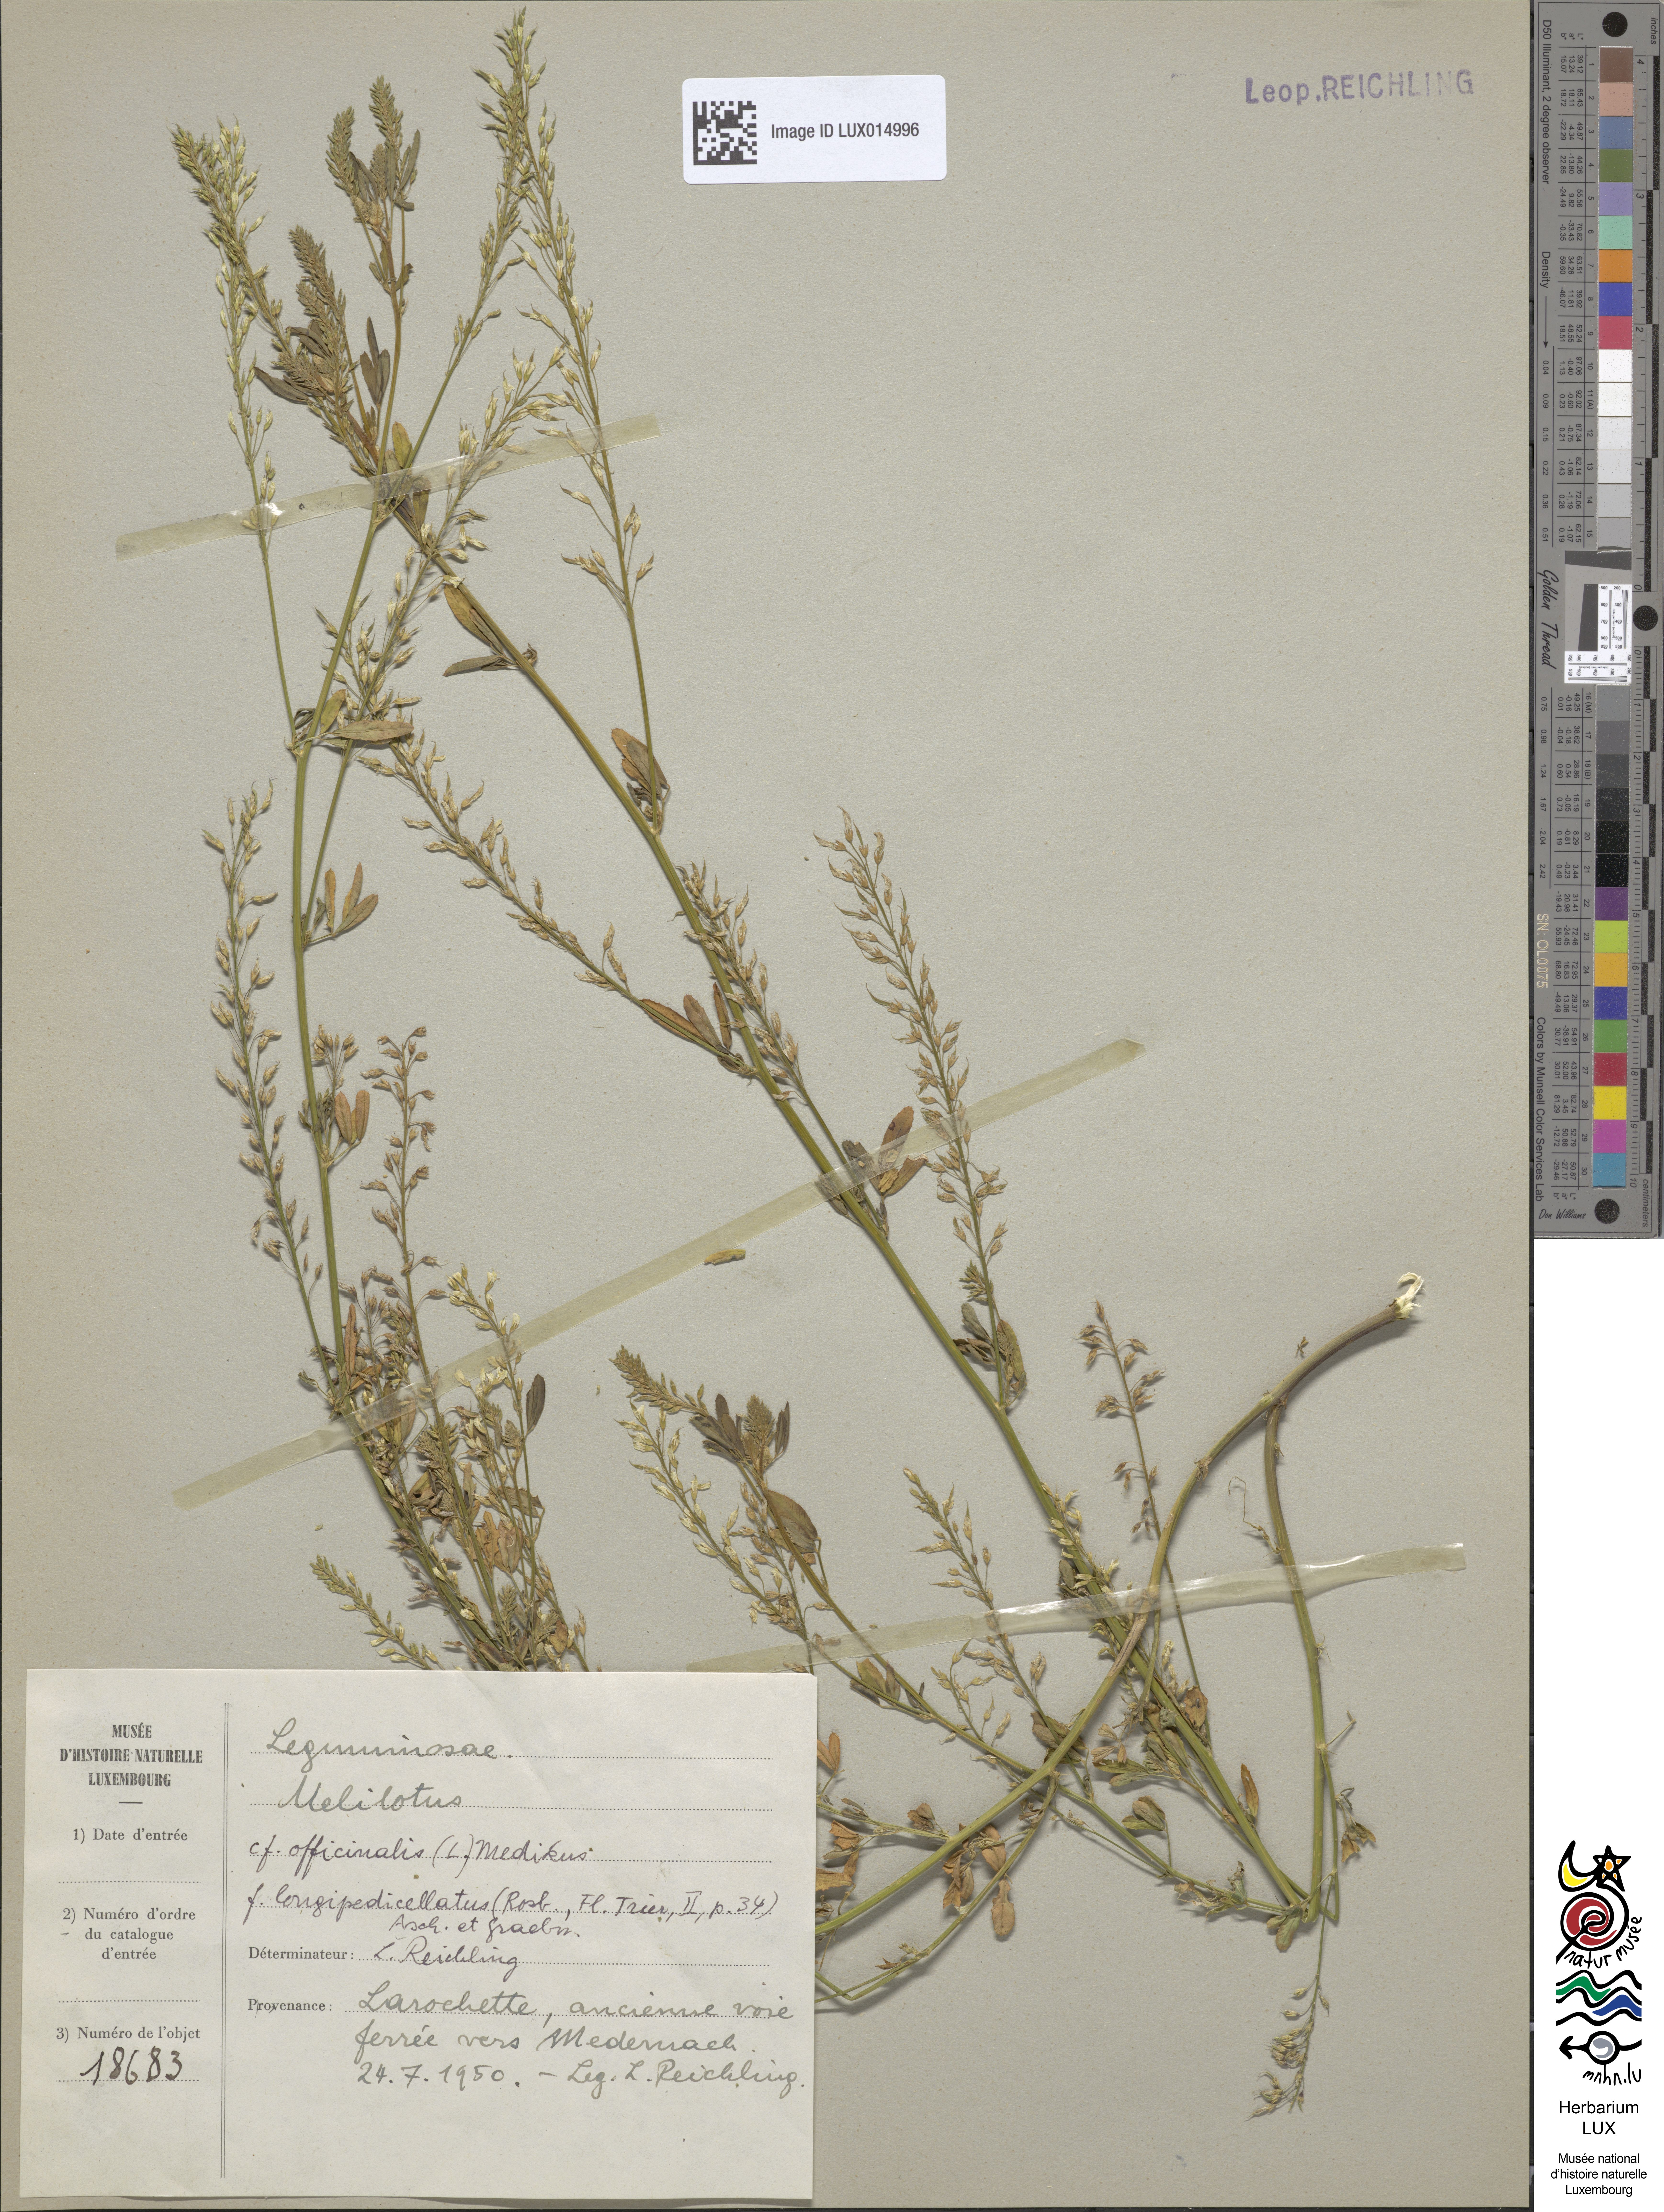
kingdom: Plantae
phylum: Tracheophyta
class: Magnoliopsida
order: Fabales
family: Fabaceae
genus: Melilotus
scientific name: Melilotus officinalis
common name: Sweetclover
